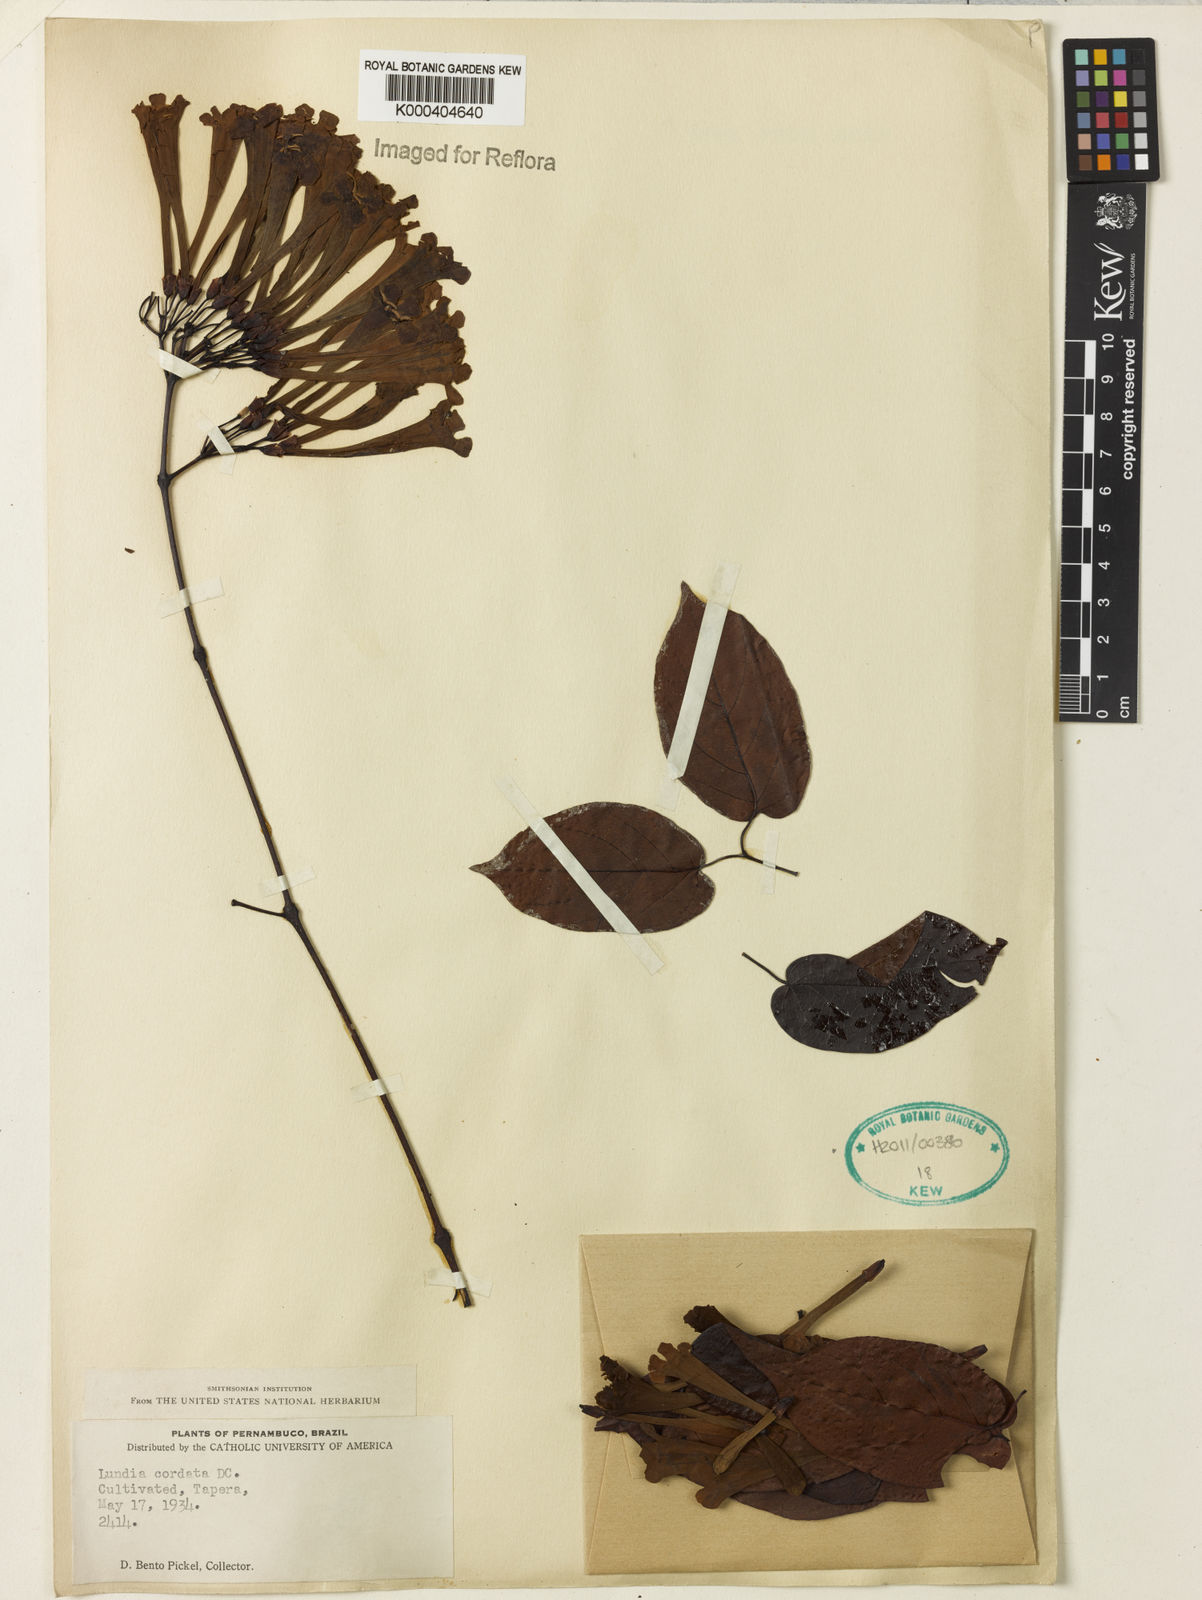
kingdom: Plantae
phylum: Tracheophyta
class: Magnoliopsida
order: Lamiales
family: Bignoniaceae
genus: Lundia
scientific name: Lundia corymbifera
